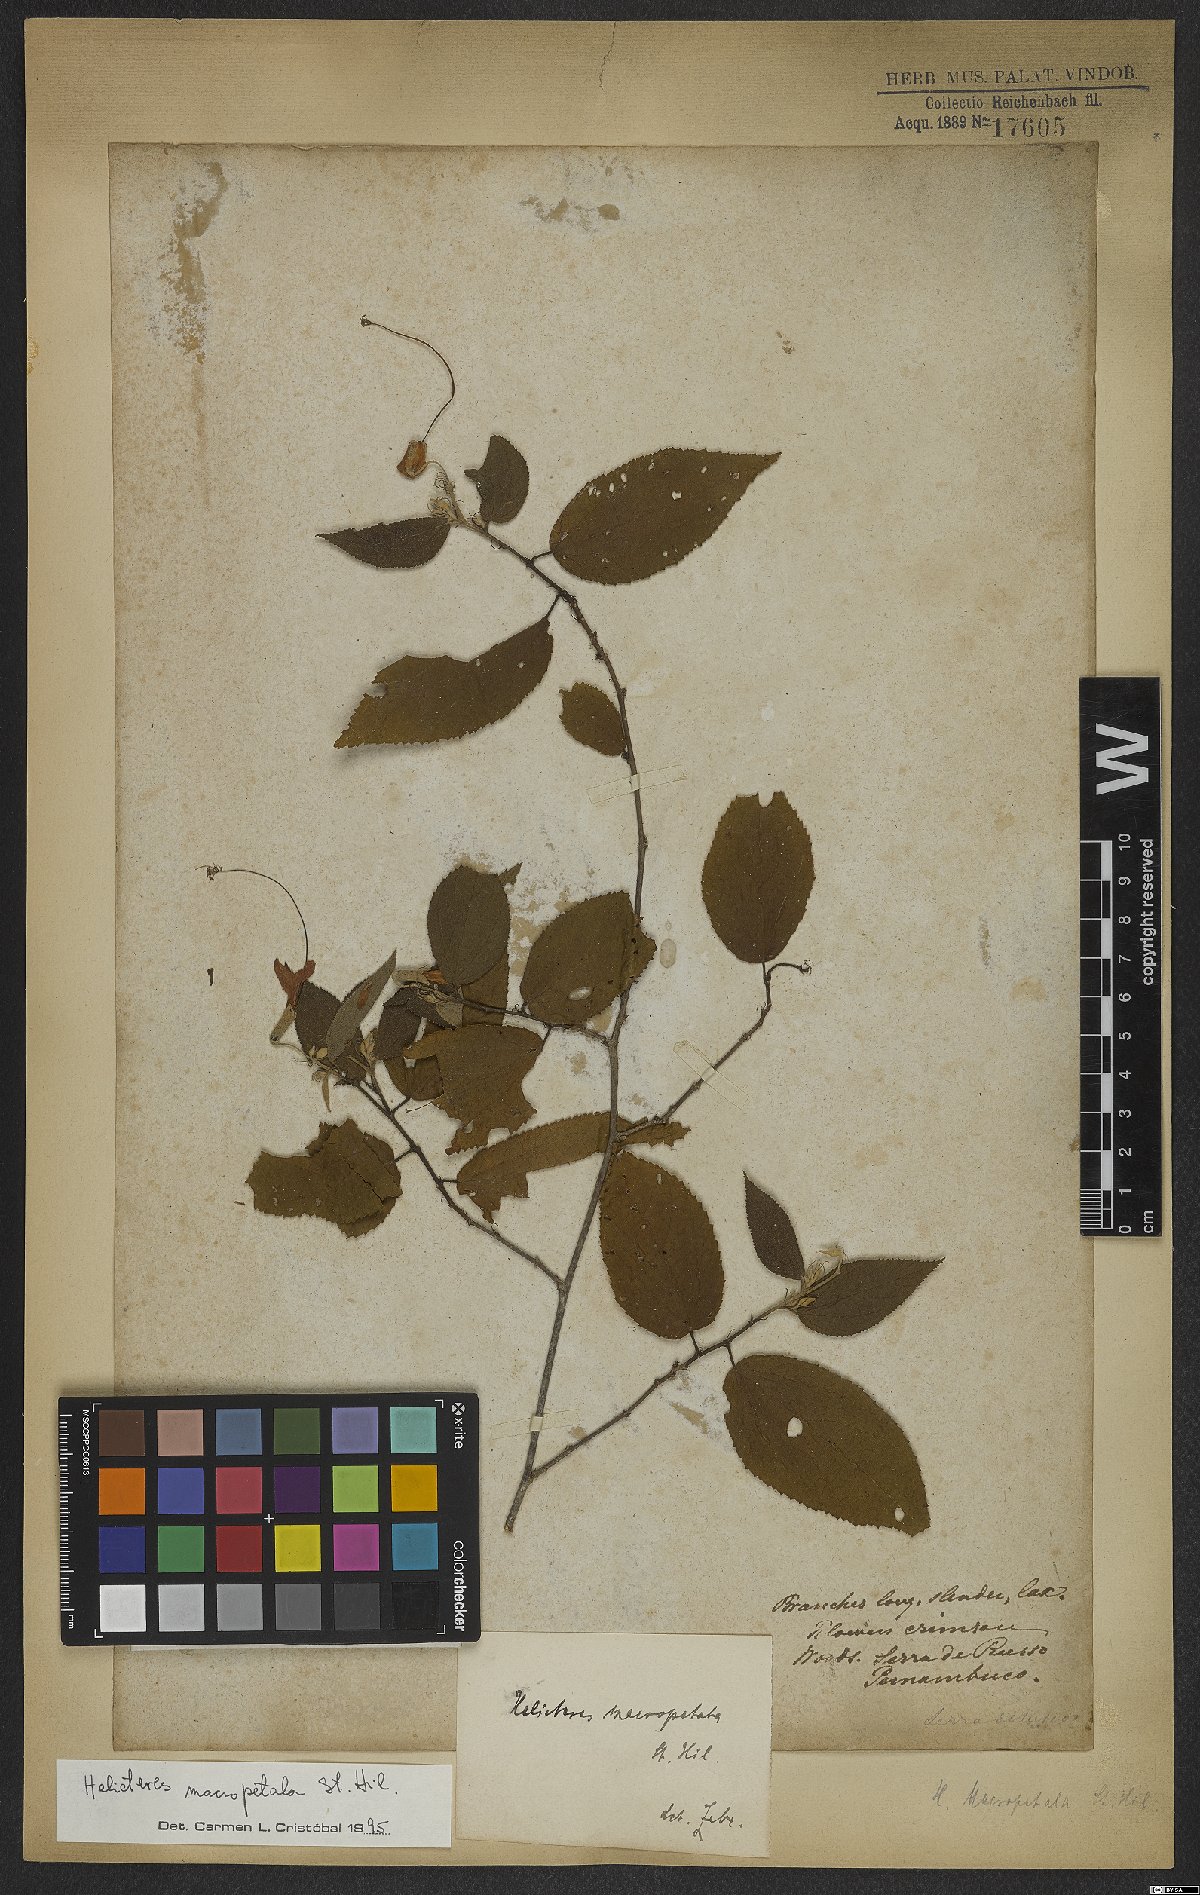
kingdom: Plantae
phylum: Tracheophyta
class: Magnoliopsida
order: Malvales
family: Malvaceae
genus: Helicteres
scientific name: Helicteres macropetala
